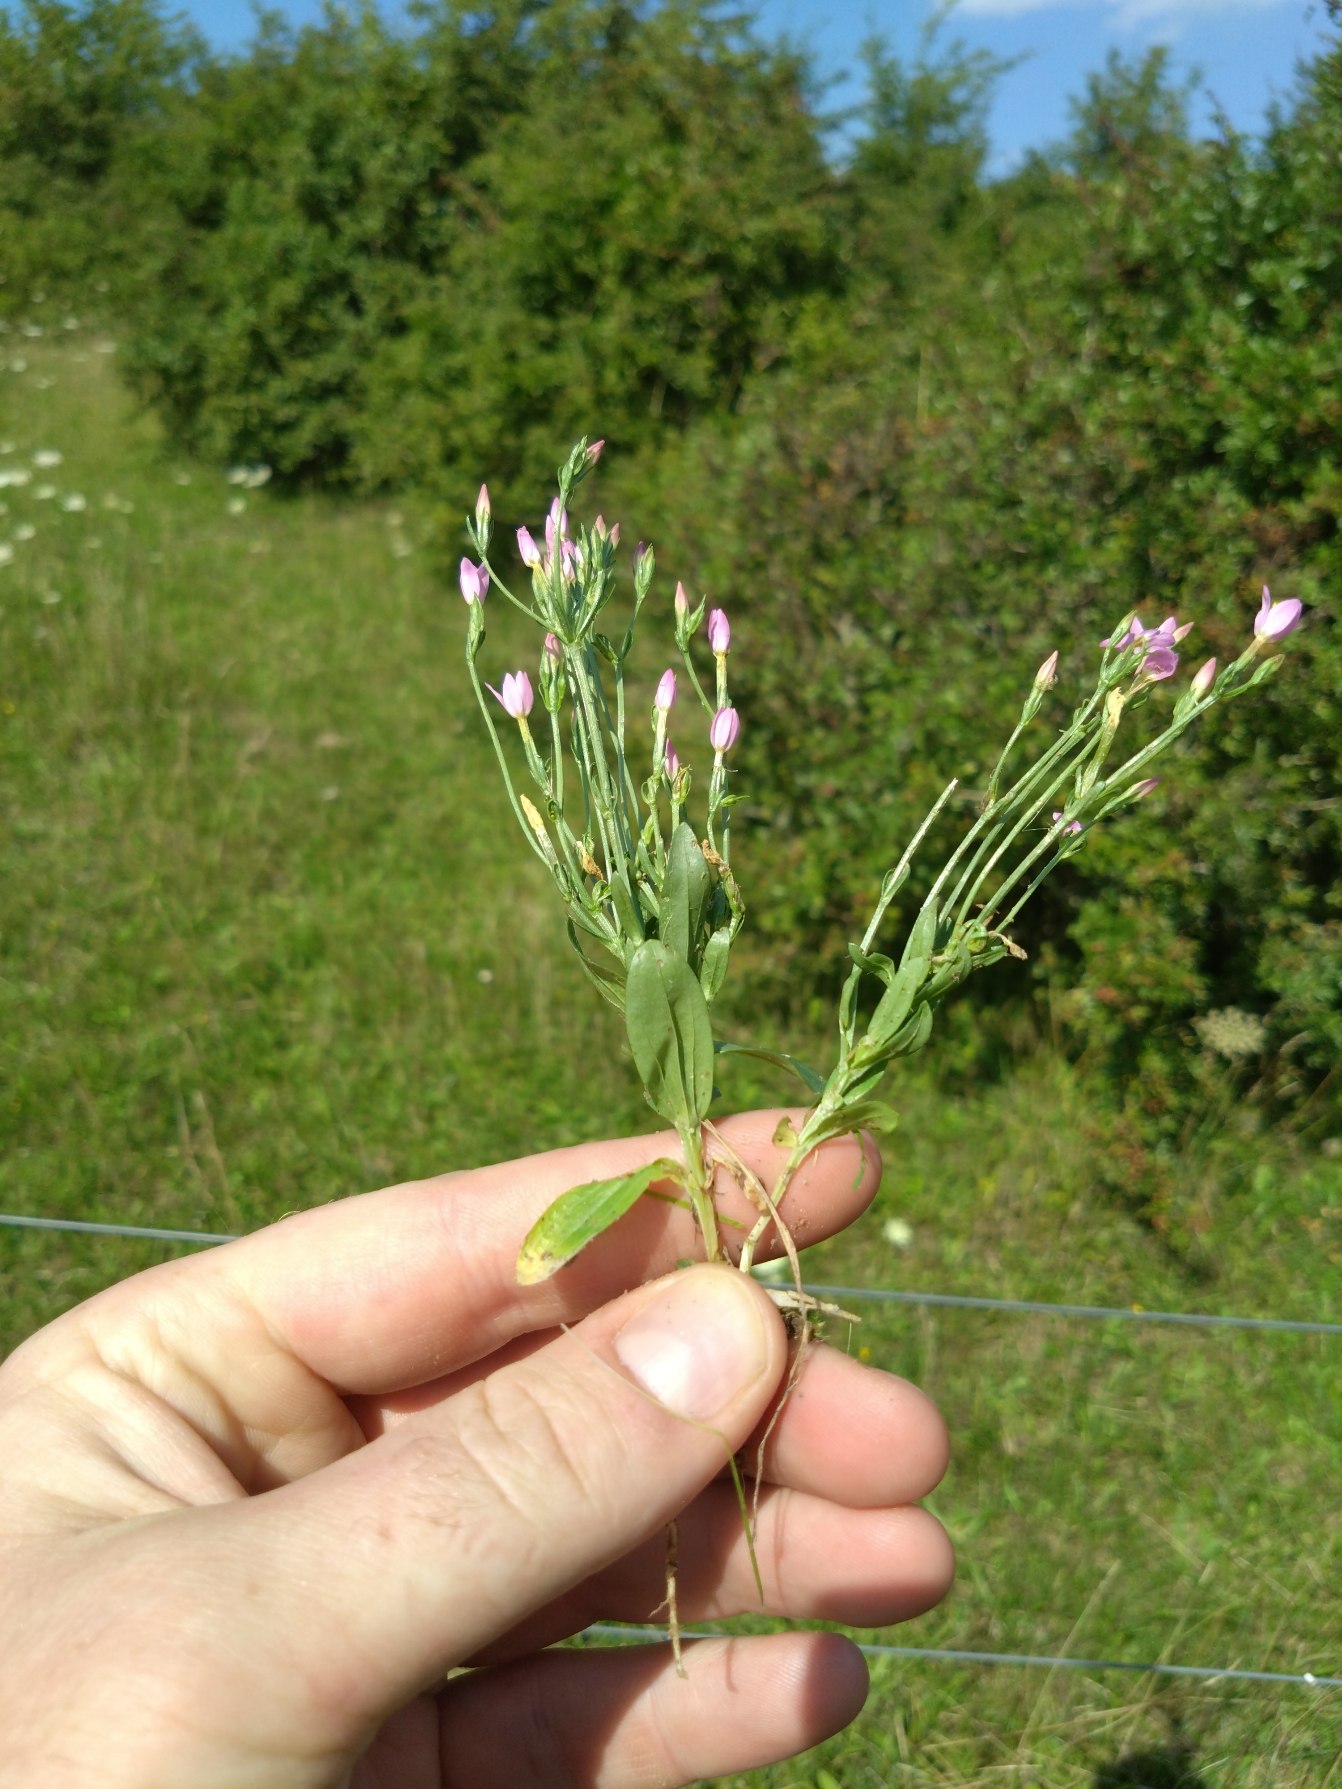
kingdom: Plantae
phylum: Tracheophyta
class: Magnoliopsida
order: Gentianales
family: Gentianaceae
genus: Centaurium
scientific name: Centaurium erythraea
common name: Mark-tusindgylden
